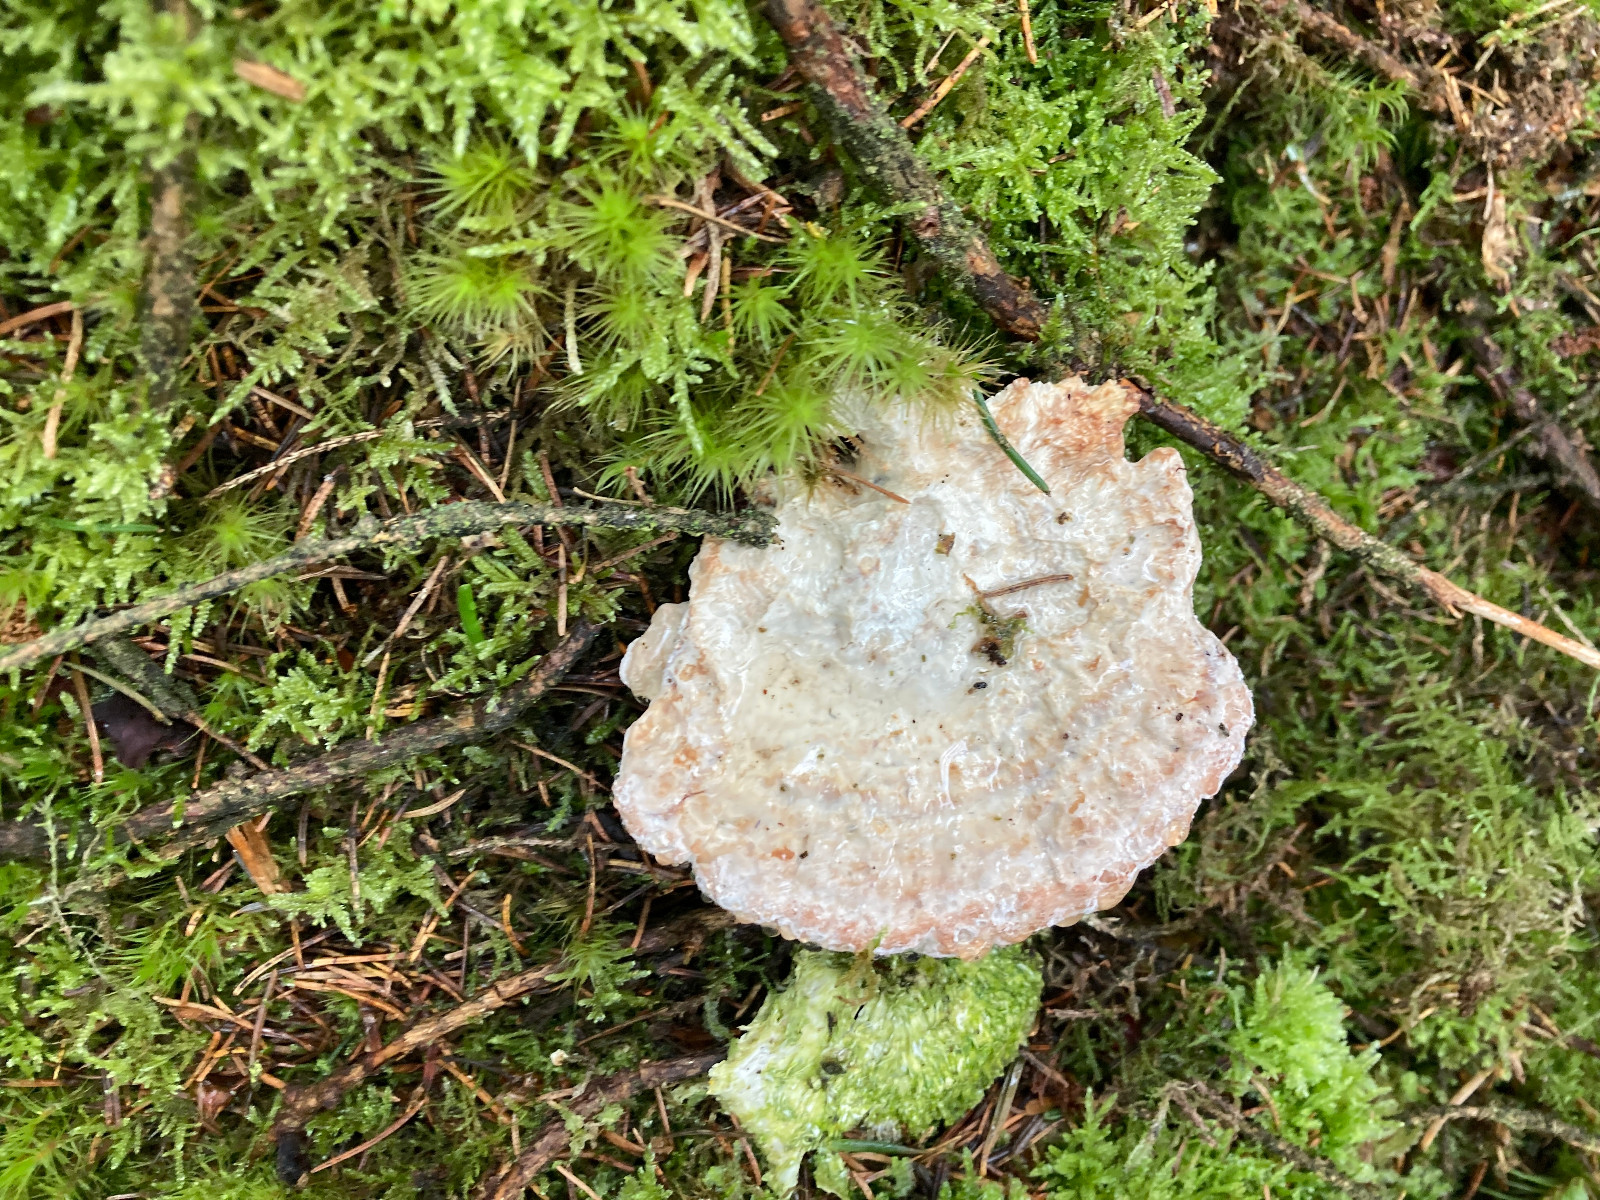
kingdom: Fungi
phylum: Basidiomycota
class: Agaricomycetes
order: Polyporales
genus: Calcipostia
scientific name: Calcipostia guttulata
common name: dråbe-kødporesvamp
